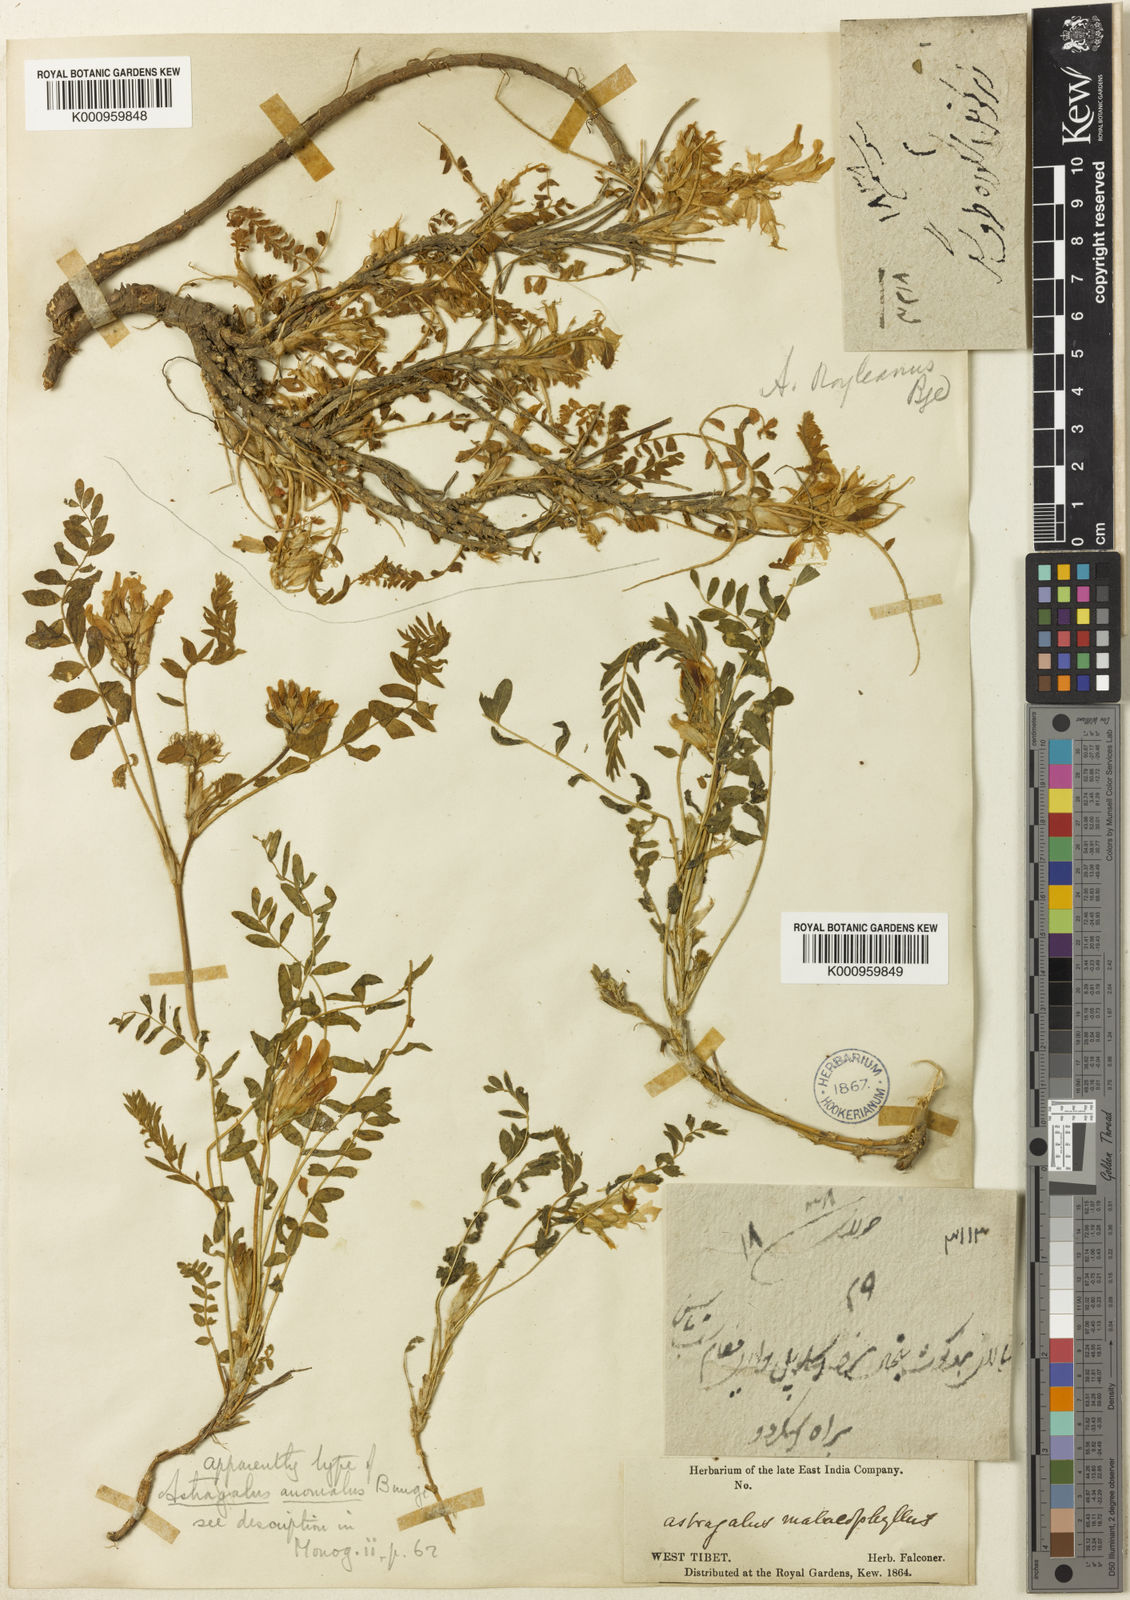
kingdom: Plantae
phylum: Tracheophyta
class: Magnoliopsida
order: Fabales
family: Fabaceae
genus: Astragalus
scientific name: Astragalus rhizanthus
